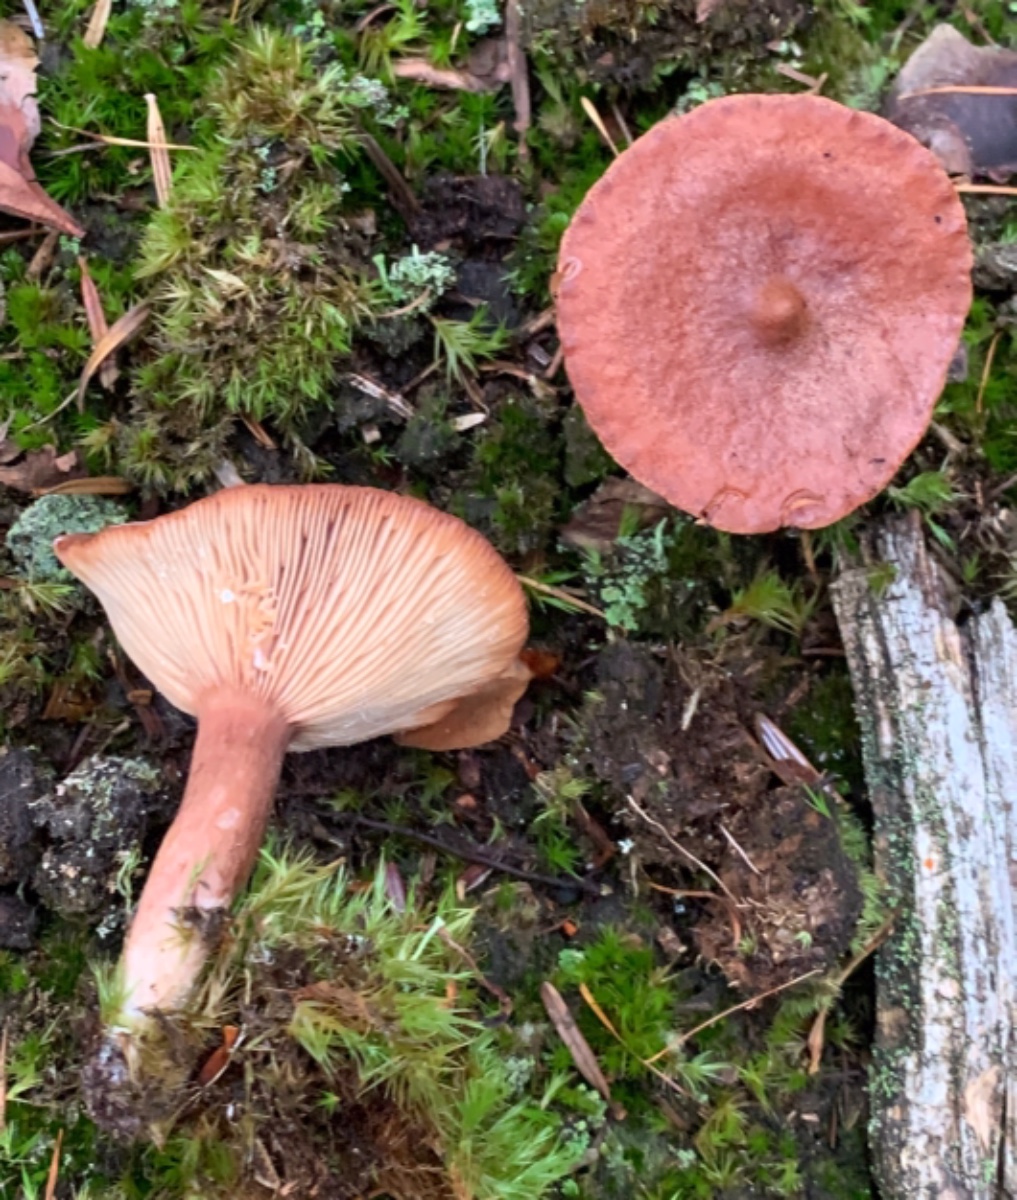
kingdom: Fungi
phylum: Basidiomycota
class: Agaricomycetes
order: Russulales
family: Russulaceae
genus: Lactarius
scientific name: Lactarius rufus
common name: rødbrun mælkehat
